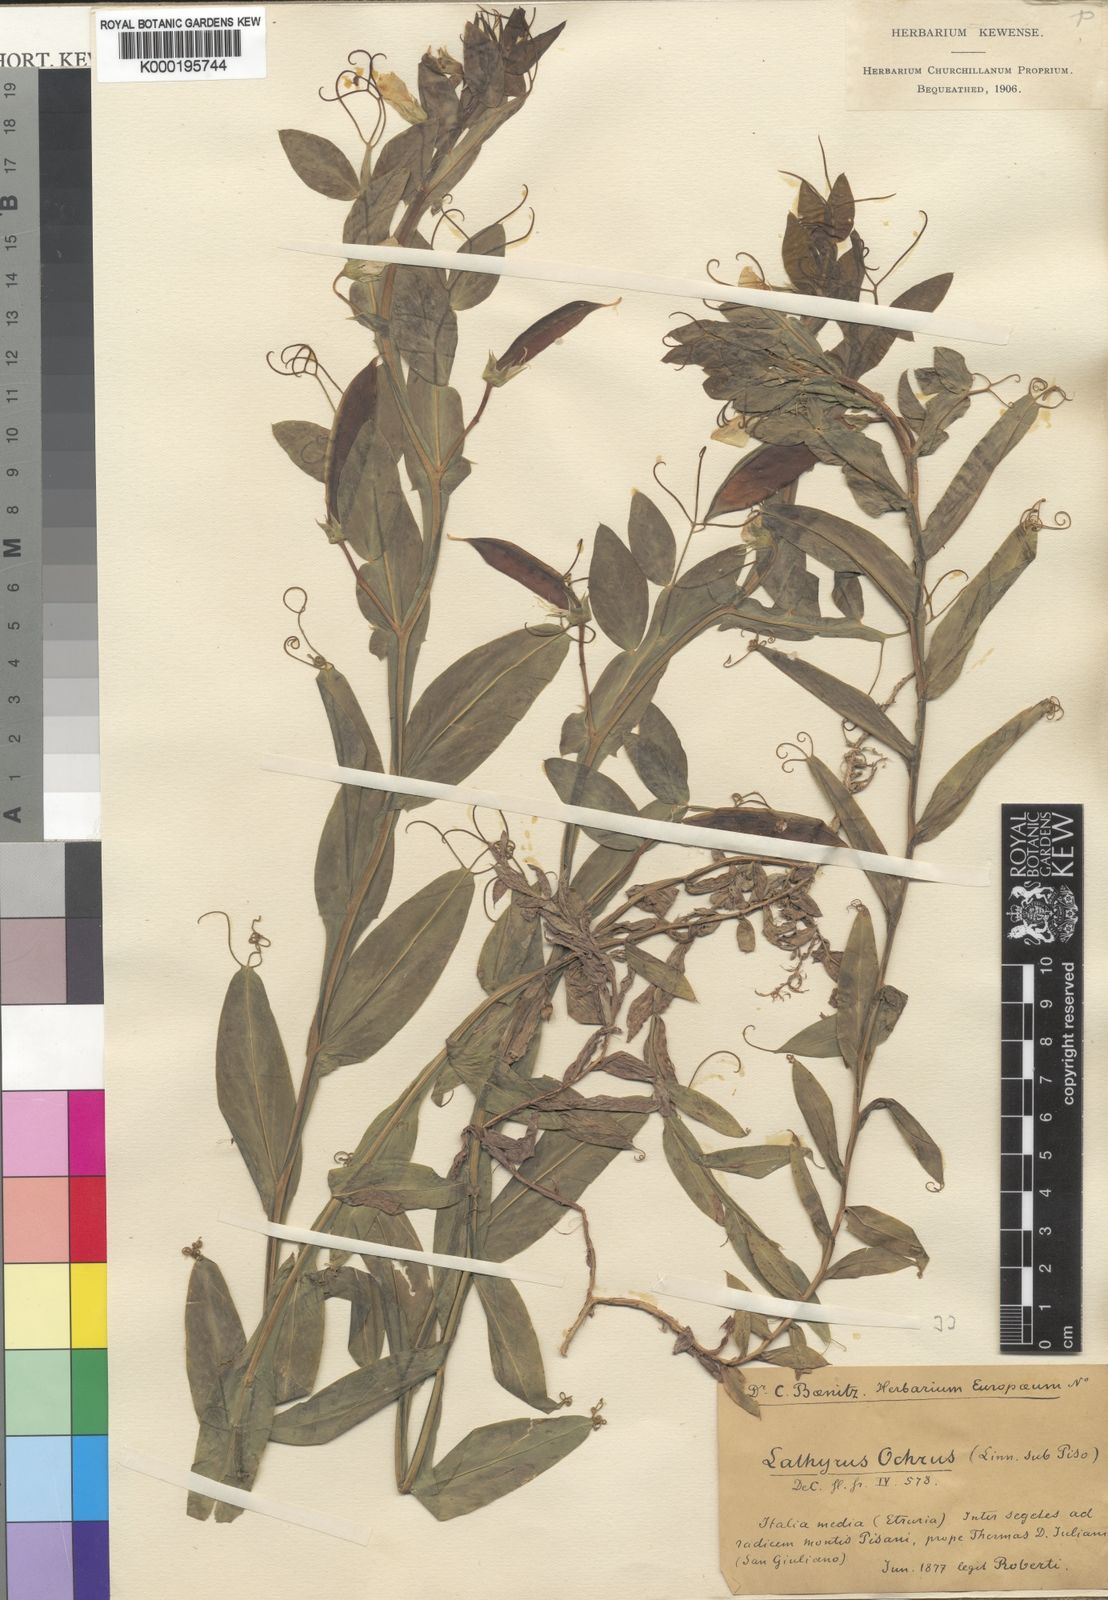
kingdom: Plantae
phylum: Tracheophyta
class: Magnoliopsida
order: Fabales
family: Fabaceae
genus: Lathyrus
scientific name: Lathyrus ochrus
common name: Winged vetchling
